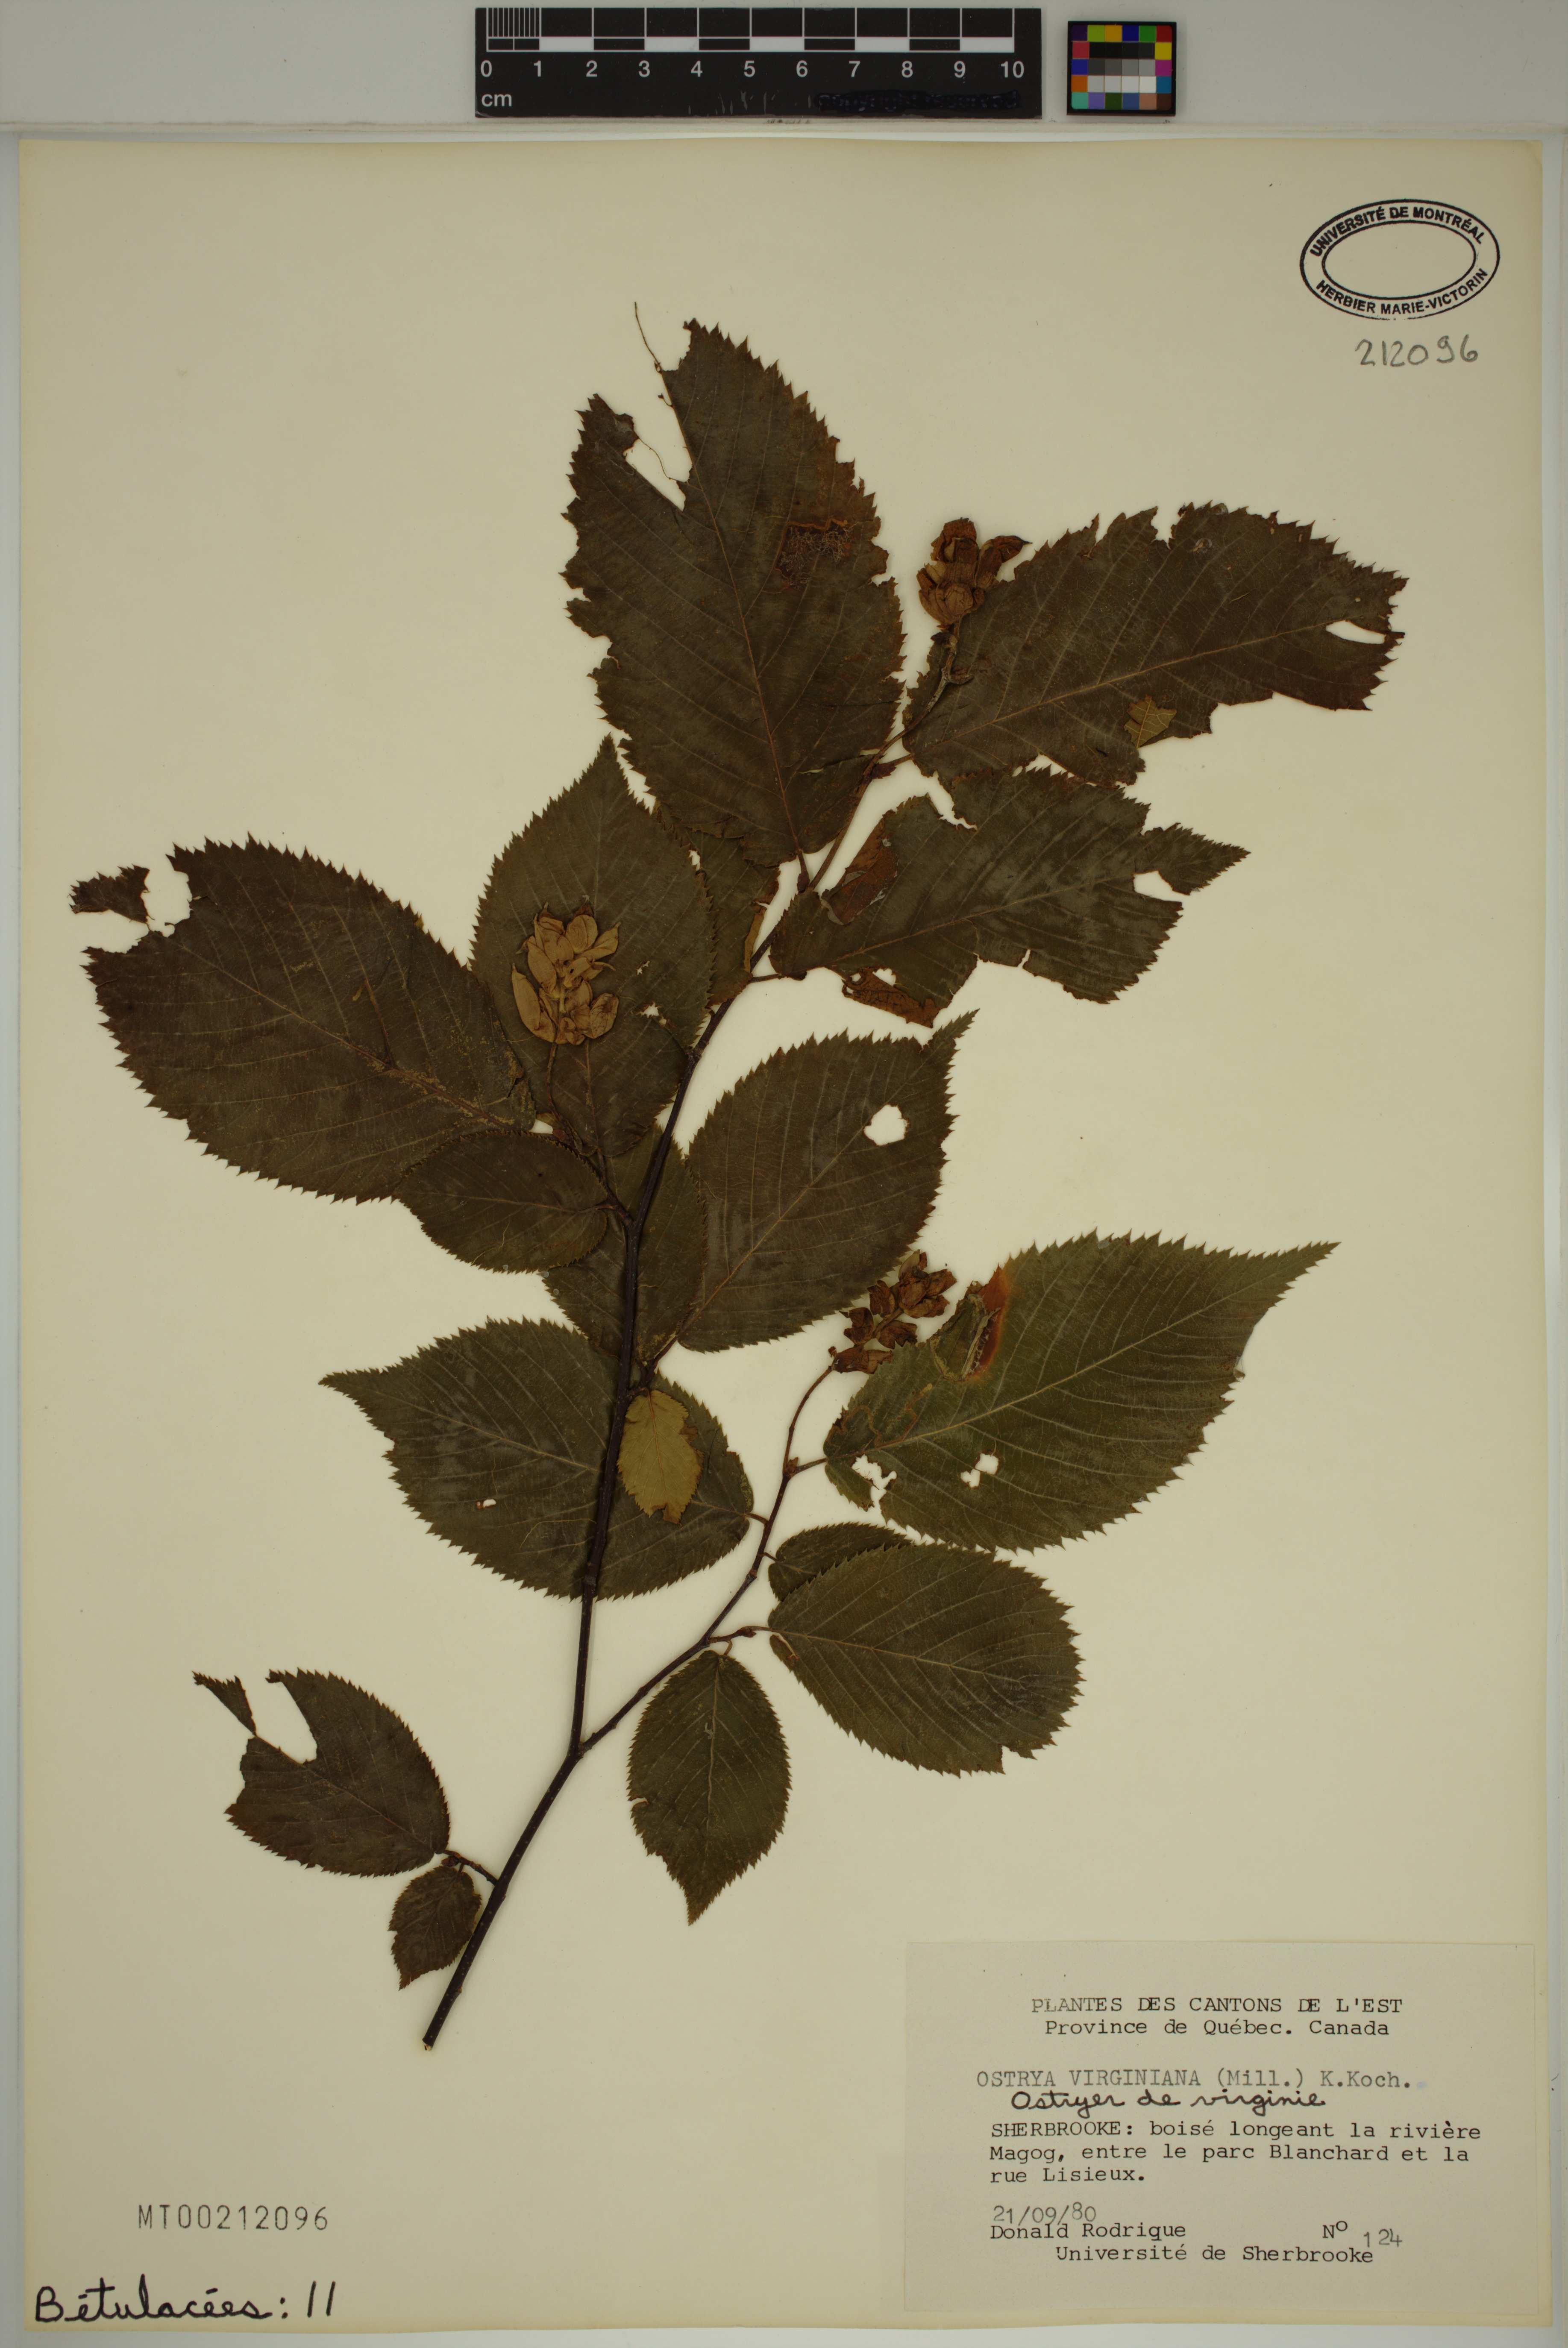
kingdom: Plantae
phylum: Tracheophyta
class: Magnoliopsida
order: Fagales
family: Betulaceae
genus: Ostrya
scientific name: Ostrya virginiana
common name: Ironwood
